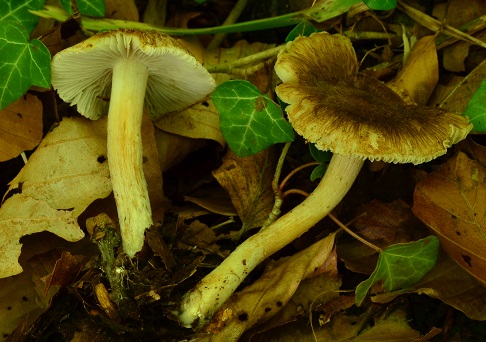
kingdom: Fungi
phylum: Basidiomycota
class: Agaricomycetes
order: Agaricales
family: Inocybaceae
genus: Inocybe
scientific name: Inocybe devina
